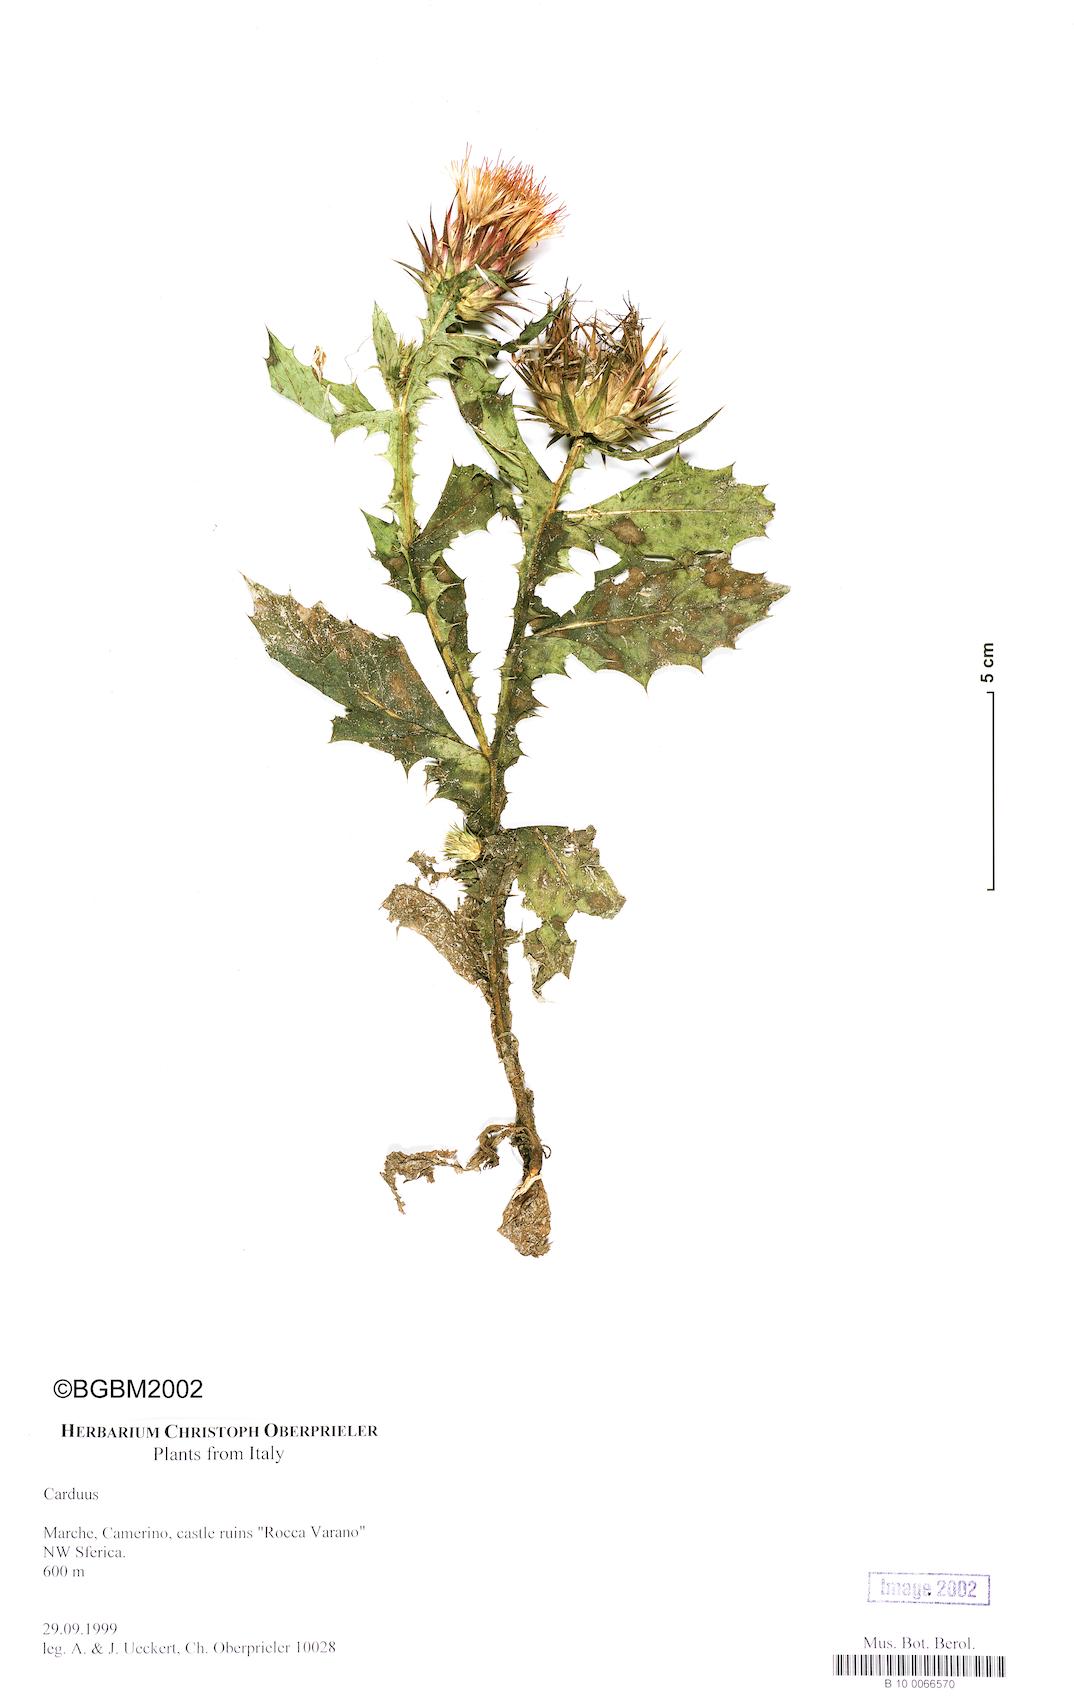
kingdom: Plantae
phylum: Tracheophyta
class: Magnoliopsida
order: Asterales
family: Asteraceae
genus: Carduus
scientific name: Carduus
